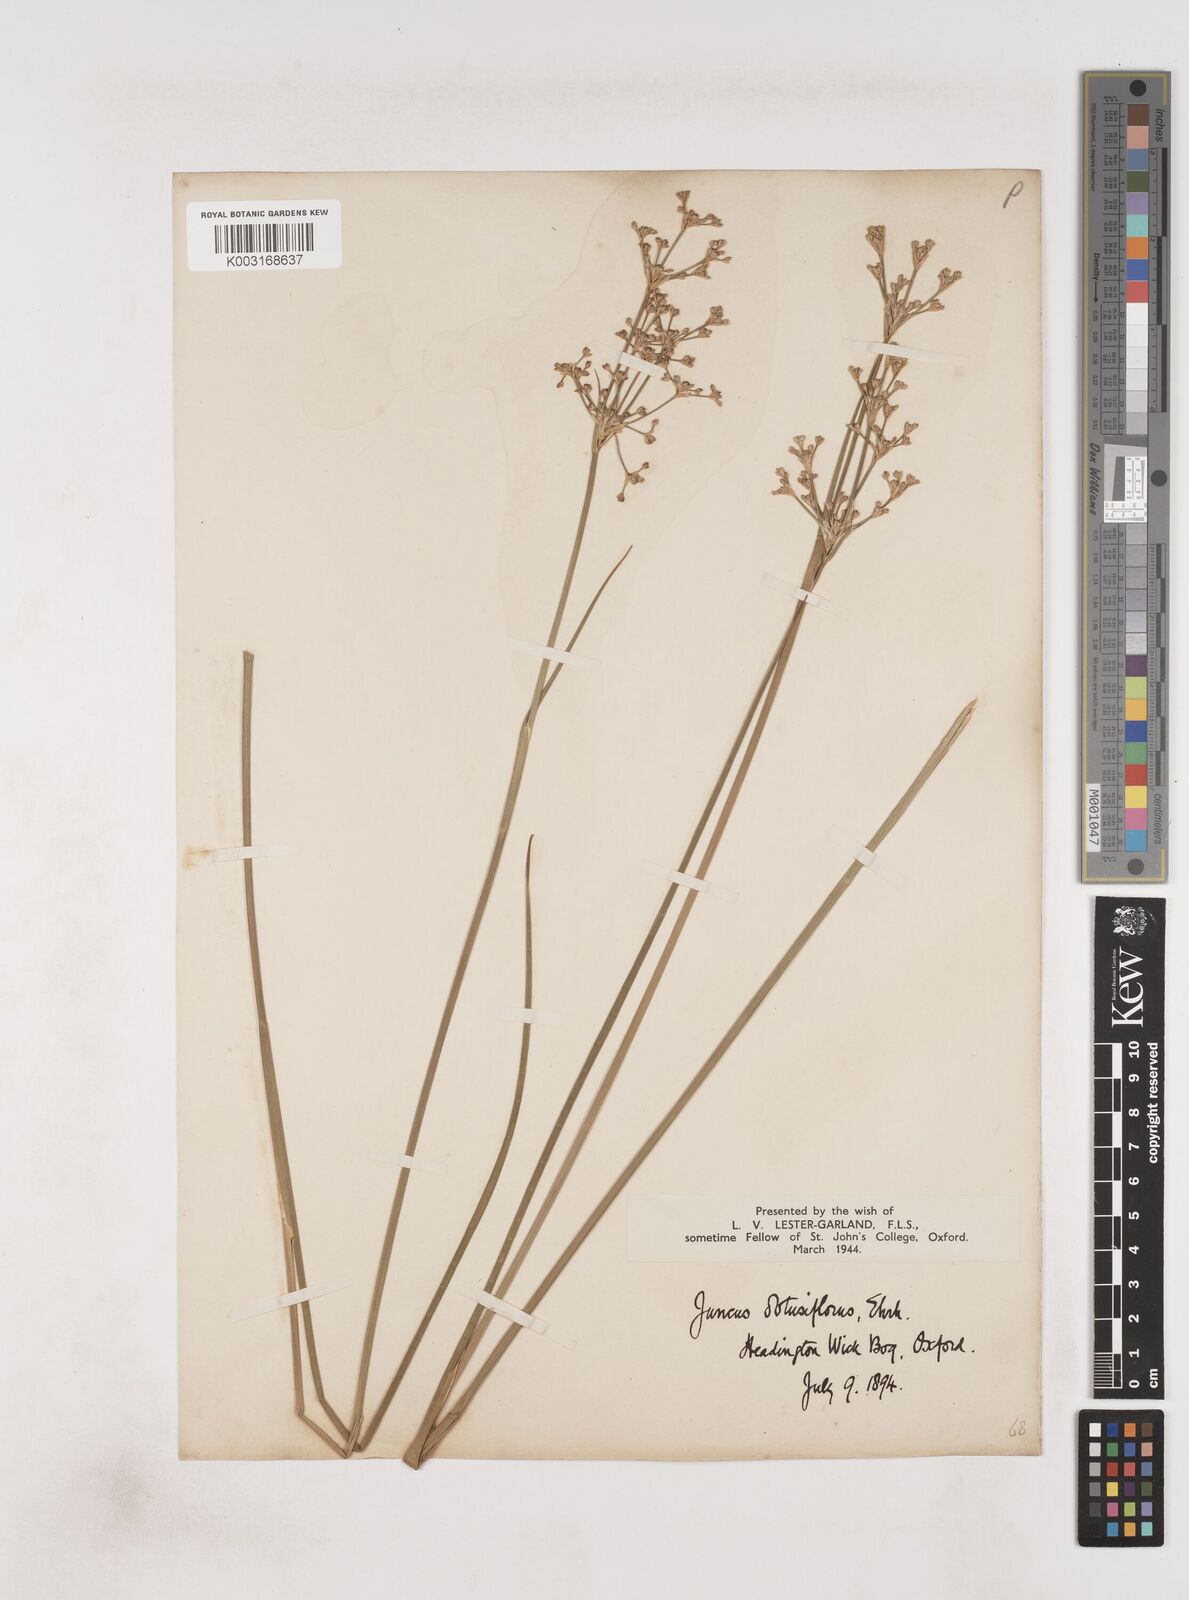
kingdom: Plantae
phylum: Tracheophyta
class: Liliopsida
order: Poales
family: Juncaceae
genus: Juncus
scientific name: Juncus subnodulosus
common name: Blunt-flowered rush
